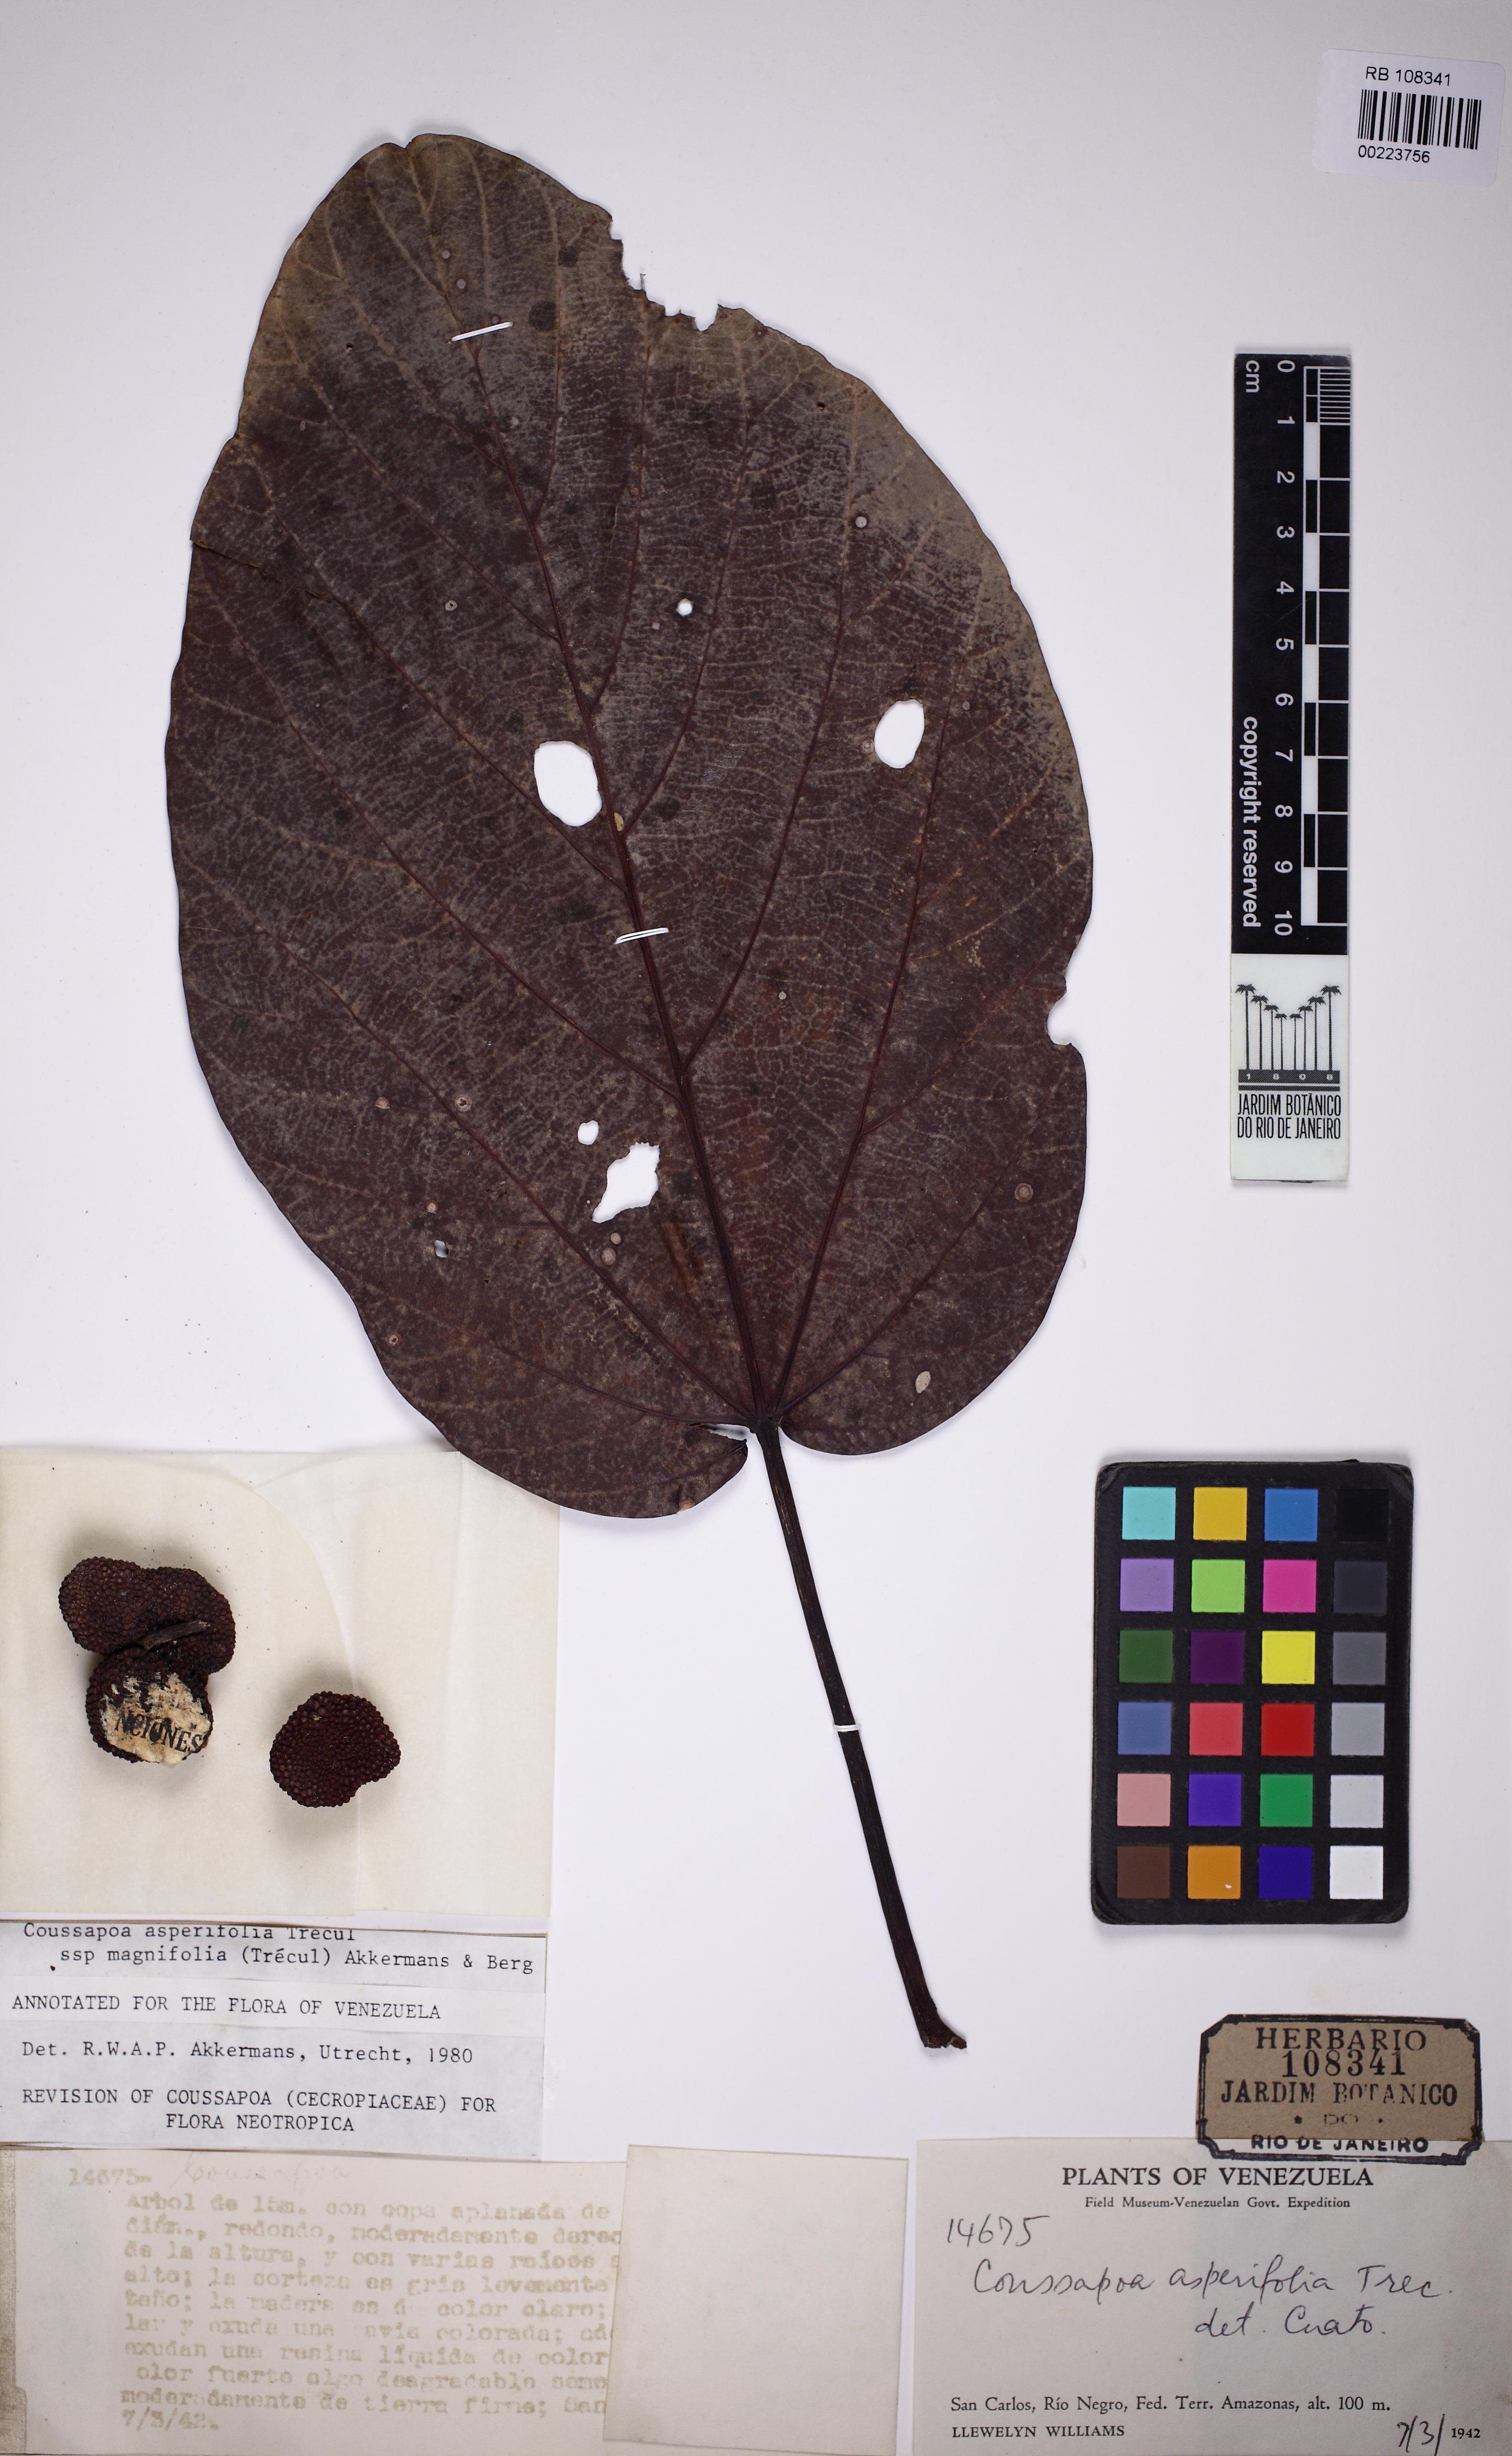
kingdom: Plantae
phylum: Tracheophyta
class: Magnoliopsida
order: Rosales
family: Urticaceae
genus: Coussapoa
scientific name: Coussapoa asperifolia
